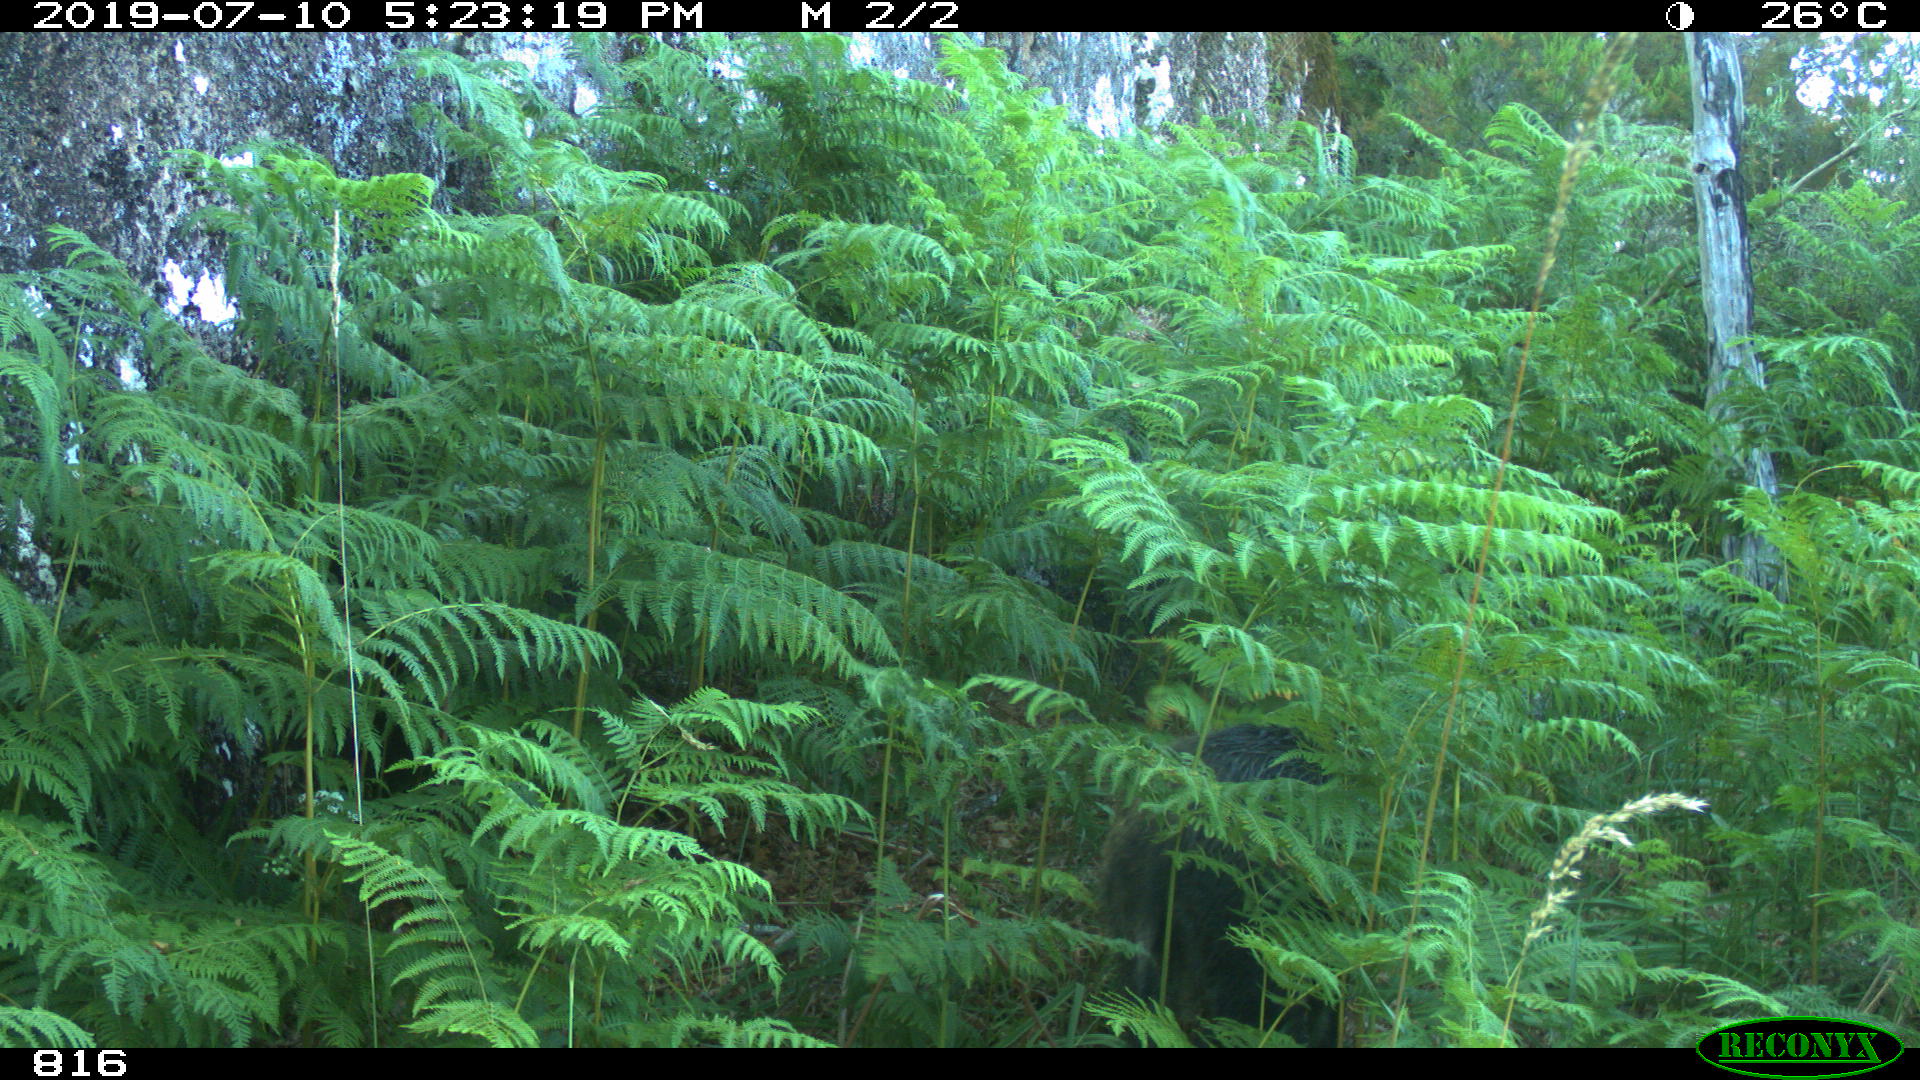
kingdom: Animalia
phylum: Chordata
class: Mammalia
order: Artiodactyla
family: Suidae
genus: Sus
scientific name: Sus scrofa
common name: Wild boar
